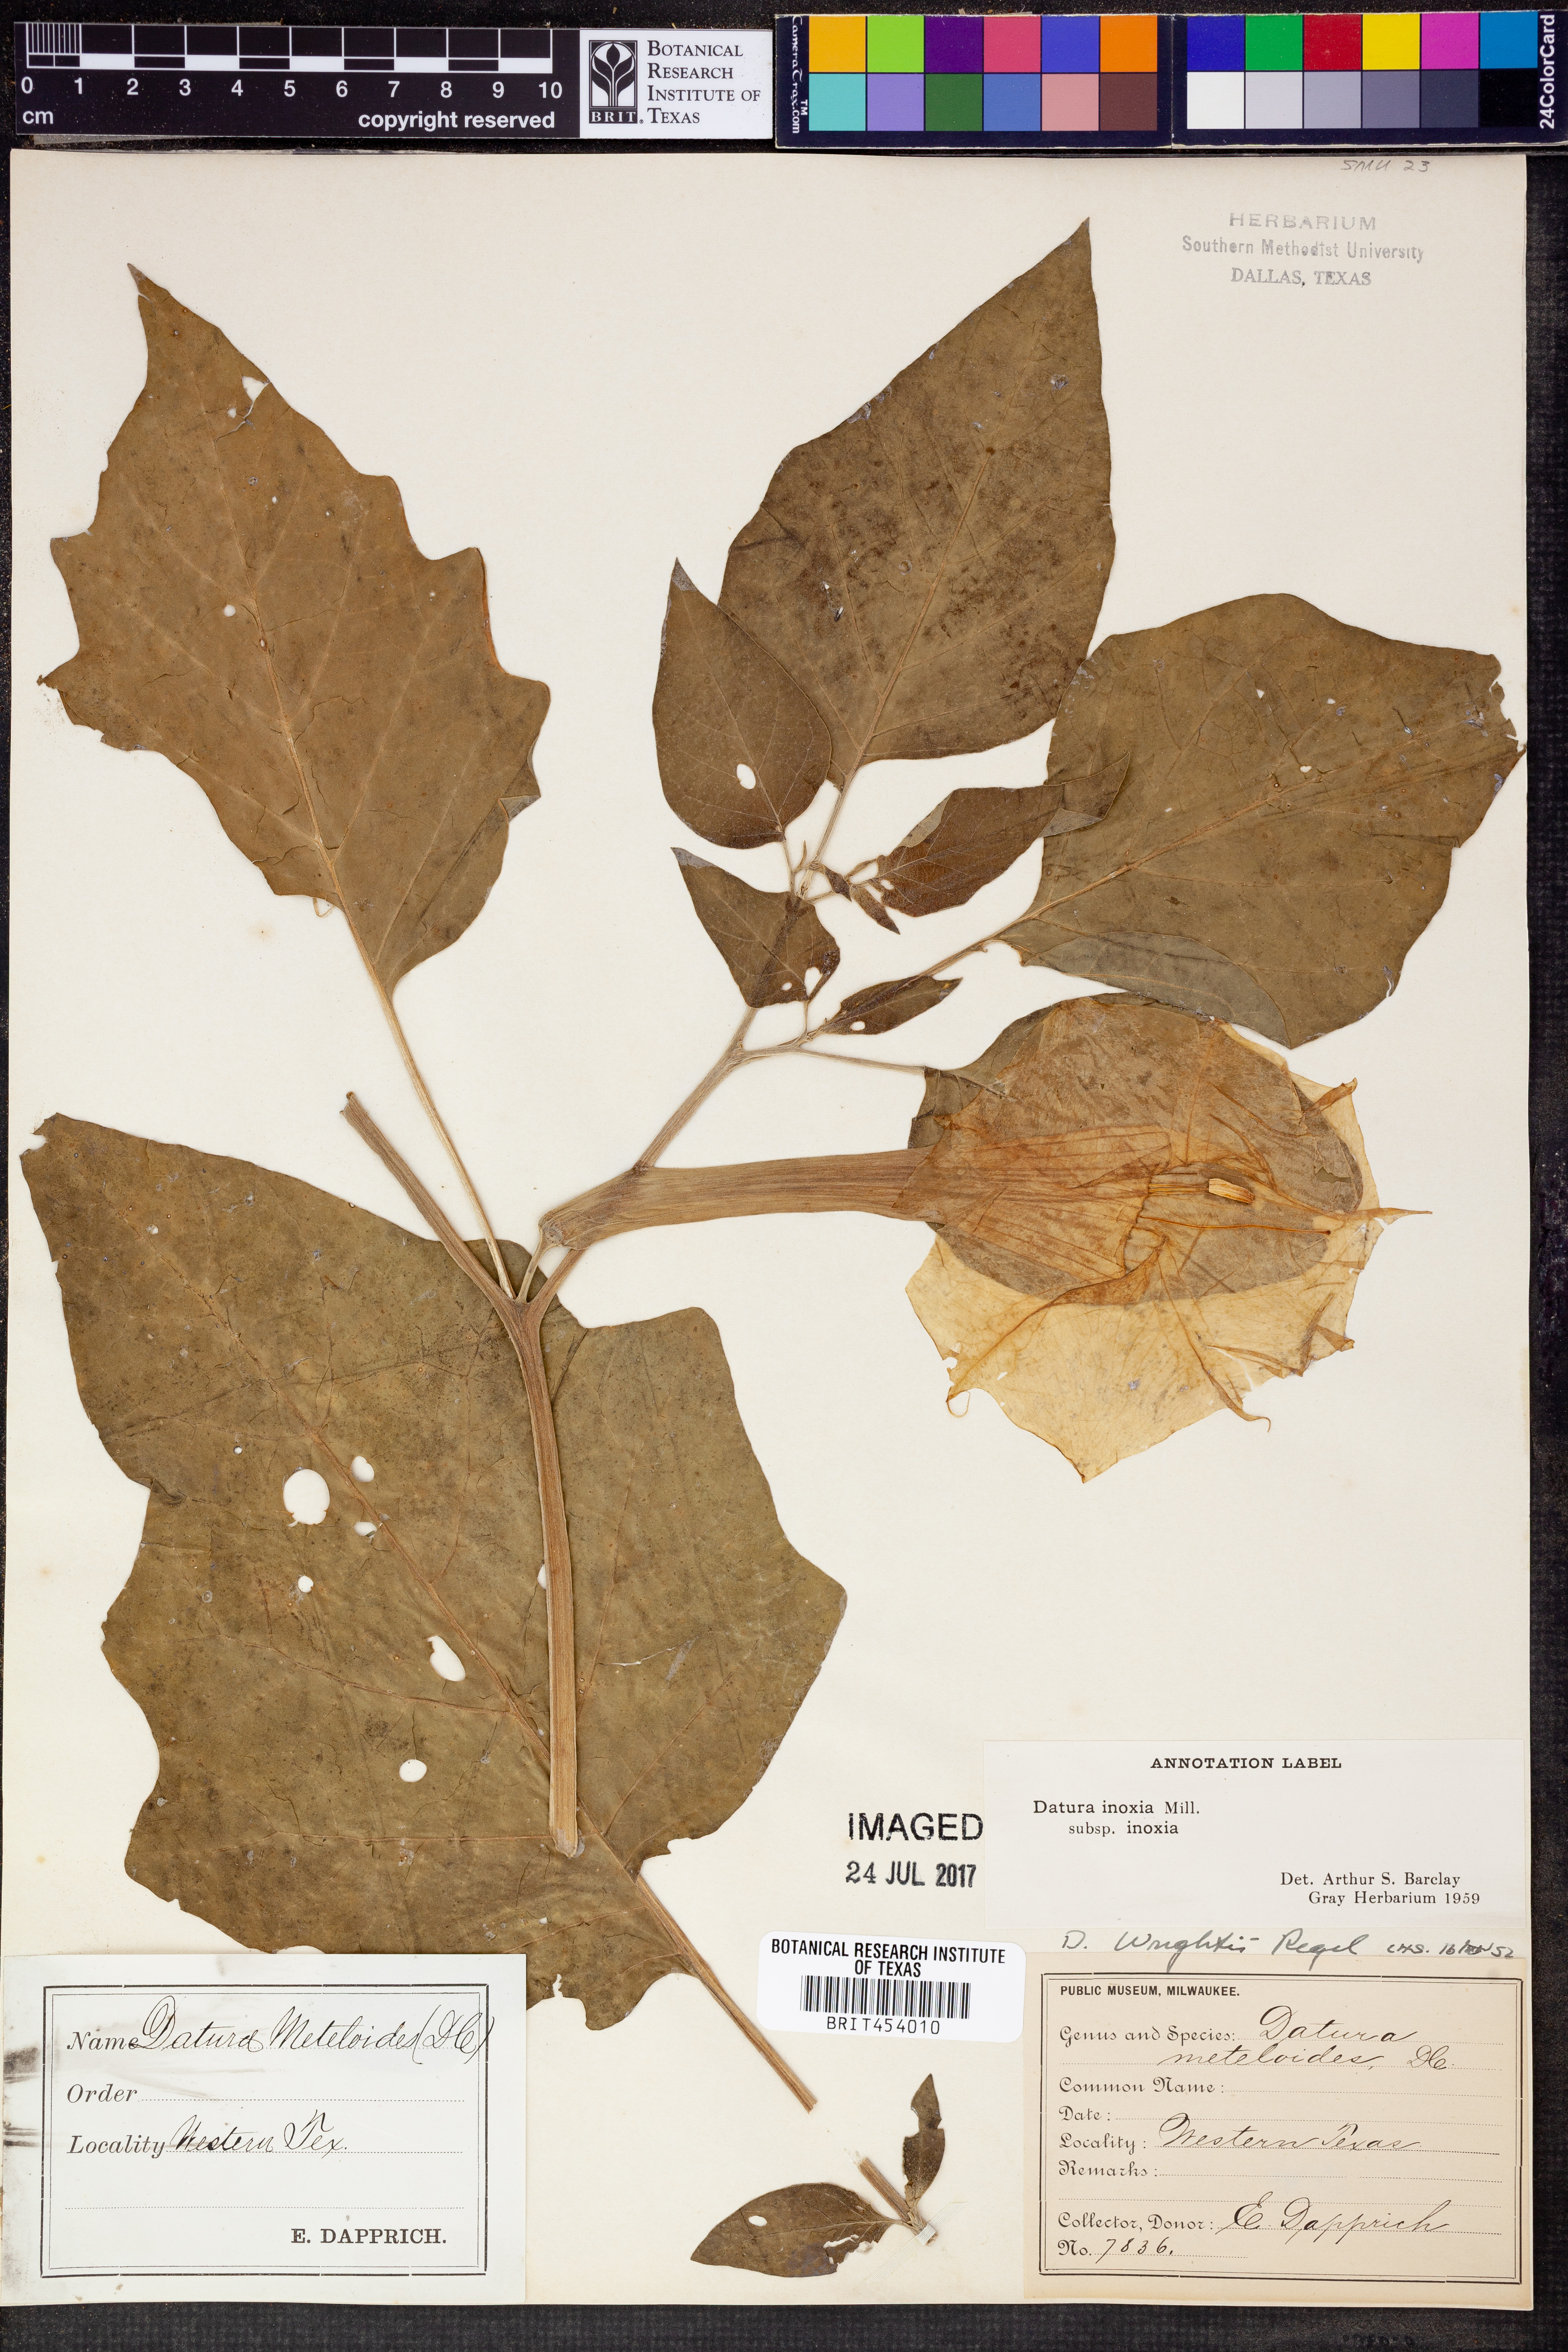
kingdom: Plantae
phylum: Tracheophyta
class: Magnoliopsida
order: Solanales
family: Solanaceae
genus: Datura
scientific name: Datura innoxia
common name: Downy thorn-apple
